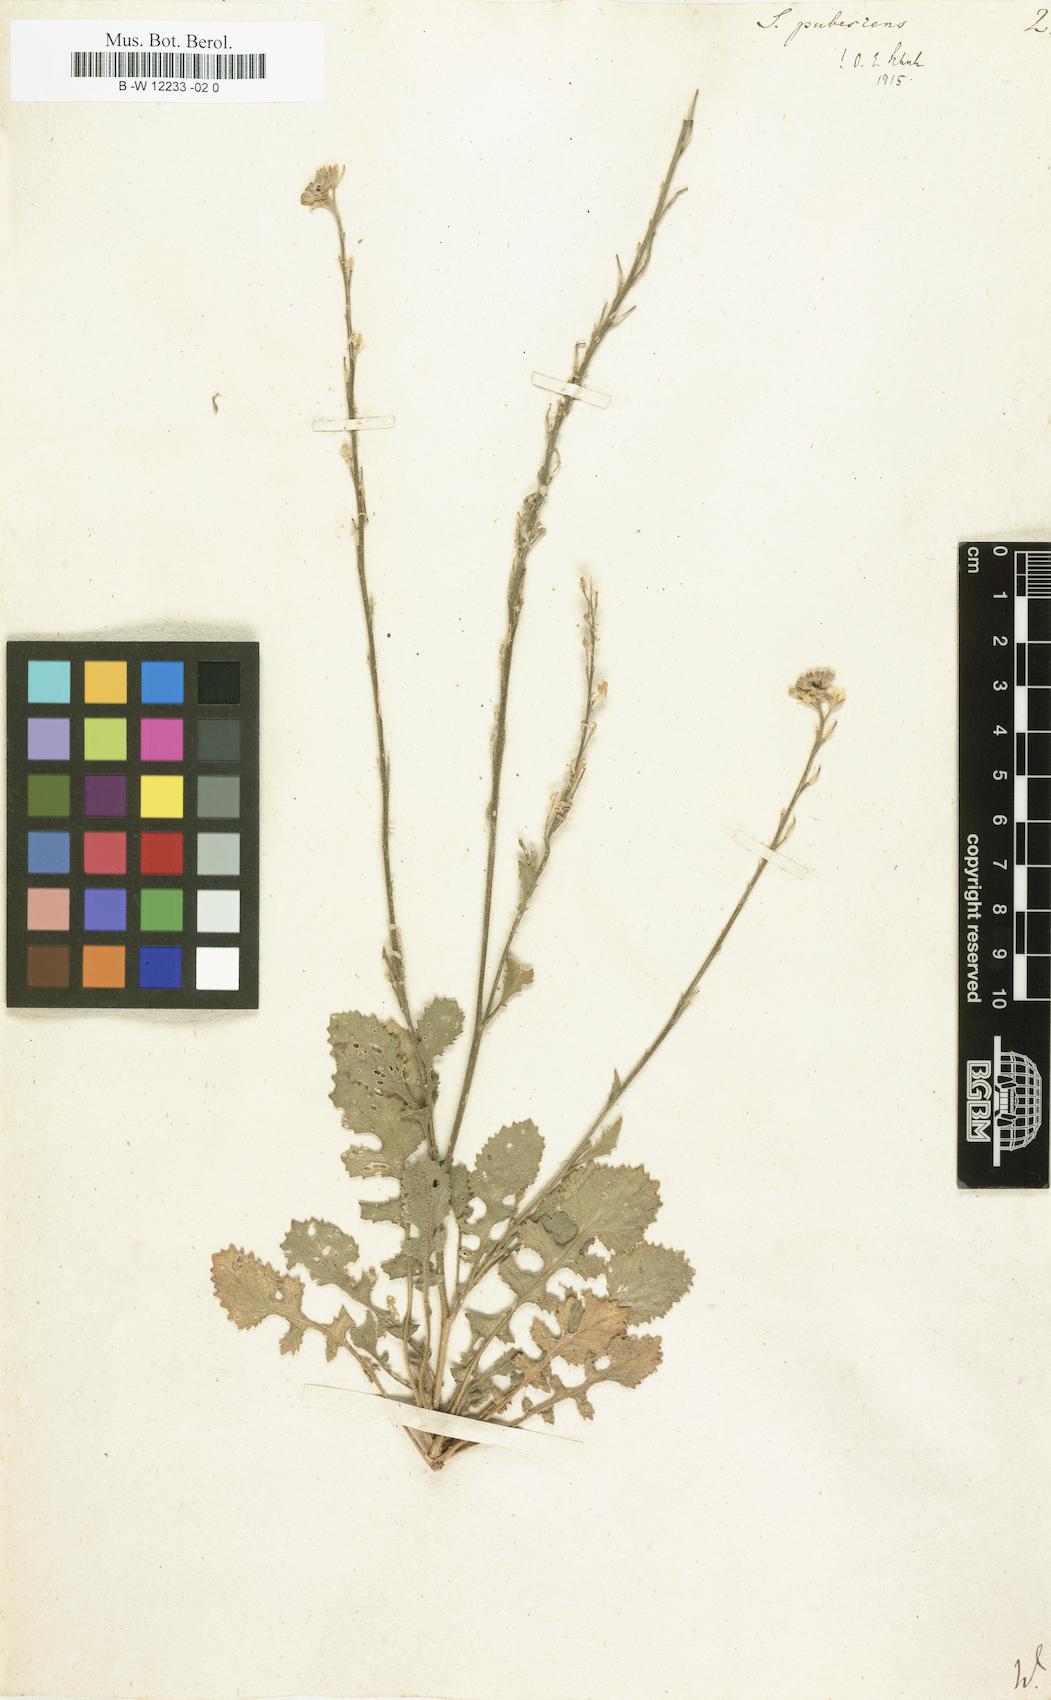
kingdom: Plantae
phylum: Tracheophyta
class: Magnoliopsida
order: Brassicales
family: Brassicaceae
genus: Sinapis
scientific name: Sinapis pubescens
